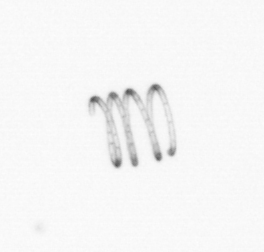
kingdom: Chromista
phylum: Ochrophyta
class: Bacillariophyceae
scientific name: Bacillariophyceae
